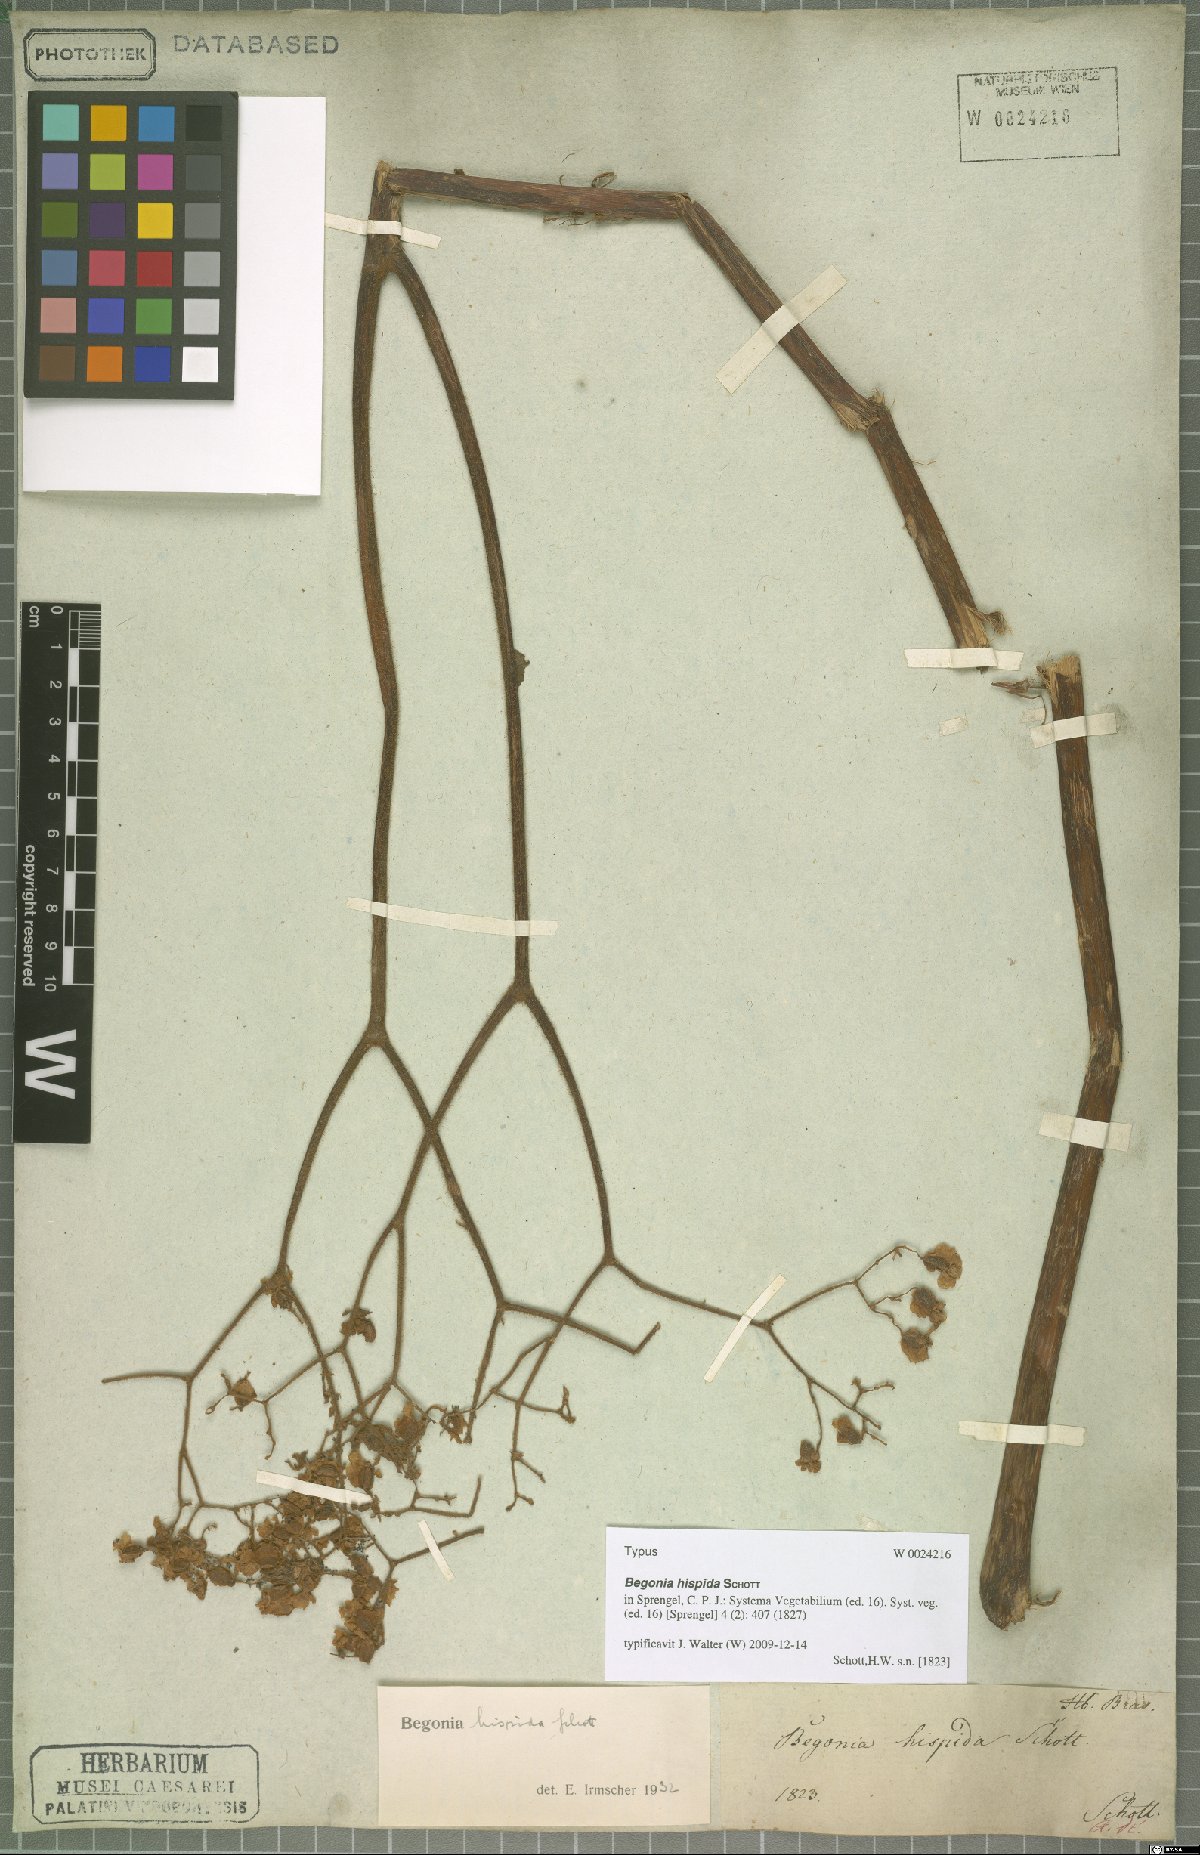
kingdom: Plantae
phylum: Tracheophyta
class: Magnoliopsida
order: Cucurbitales
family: Begoniaceae
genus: Begonia
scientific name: Begonia hispida
